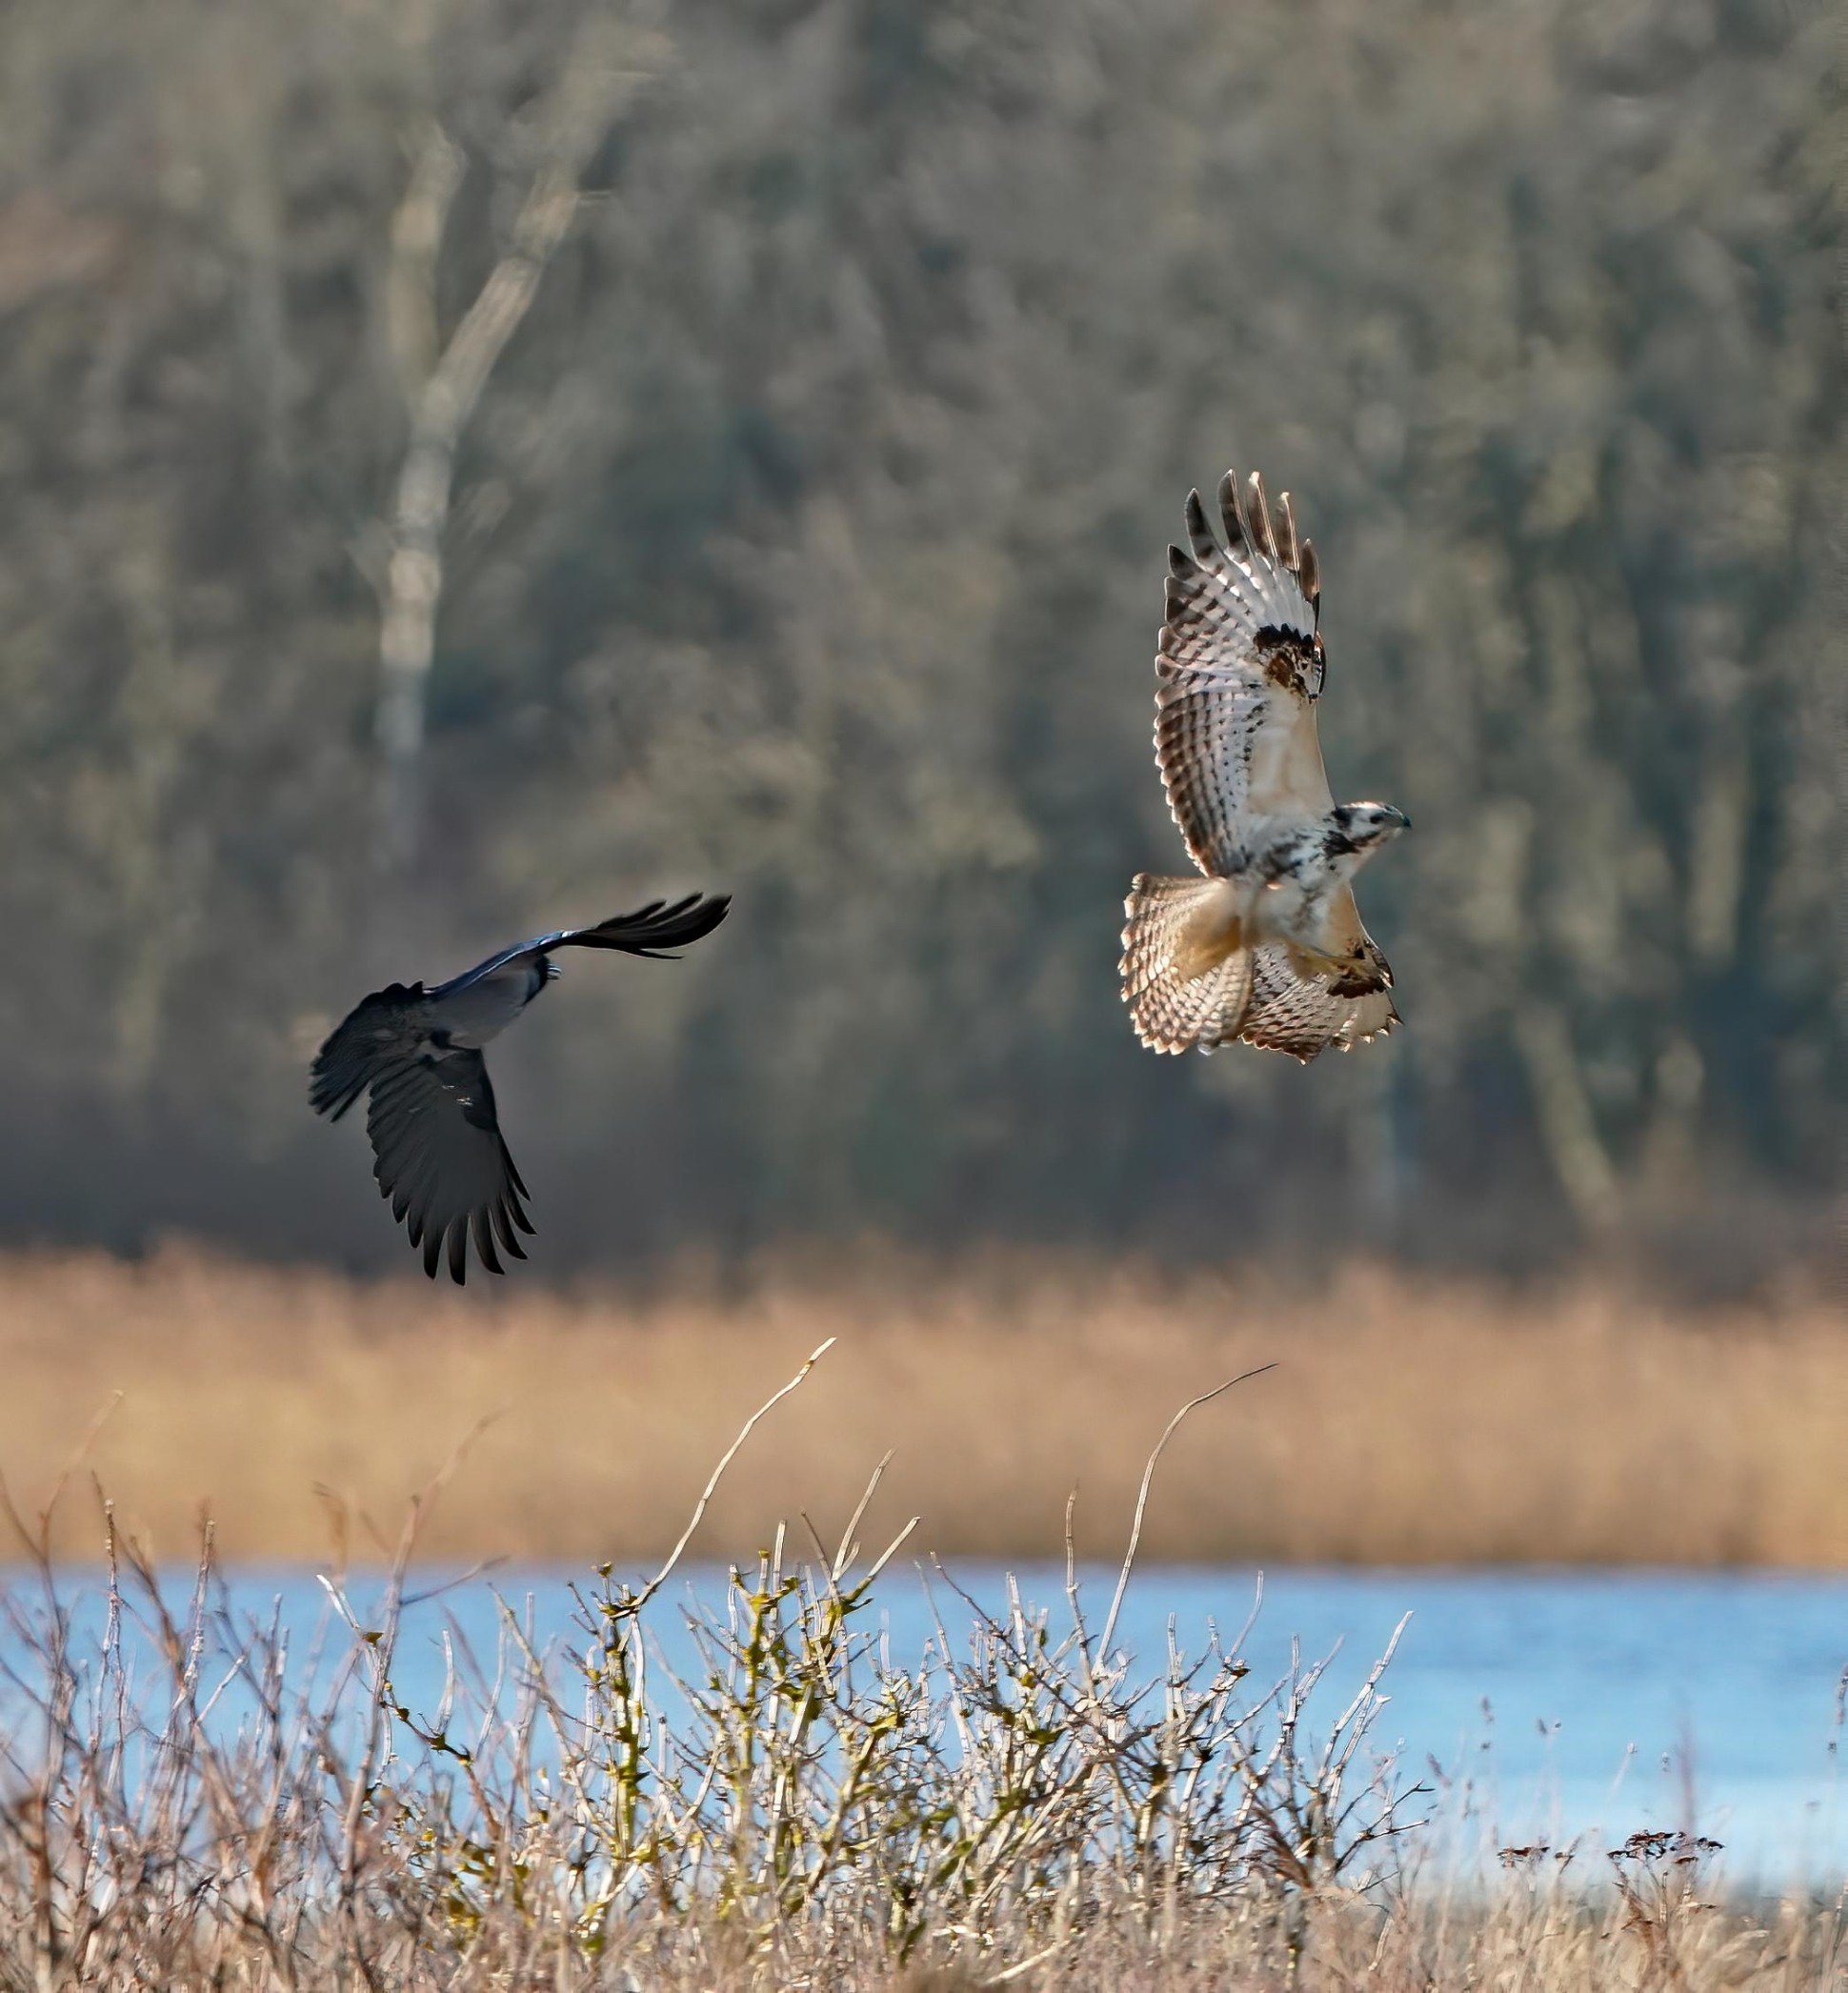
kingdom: Animalia
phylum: Chordata
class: Aves
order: Accipitriformes
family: Accipitridae
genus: Buteo
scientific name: Buteo buteo
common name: Musvåge
